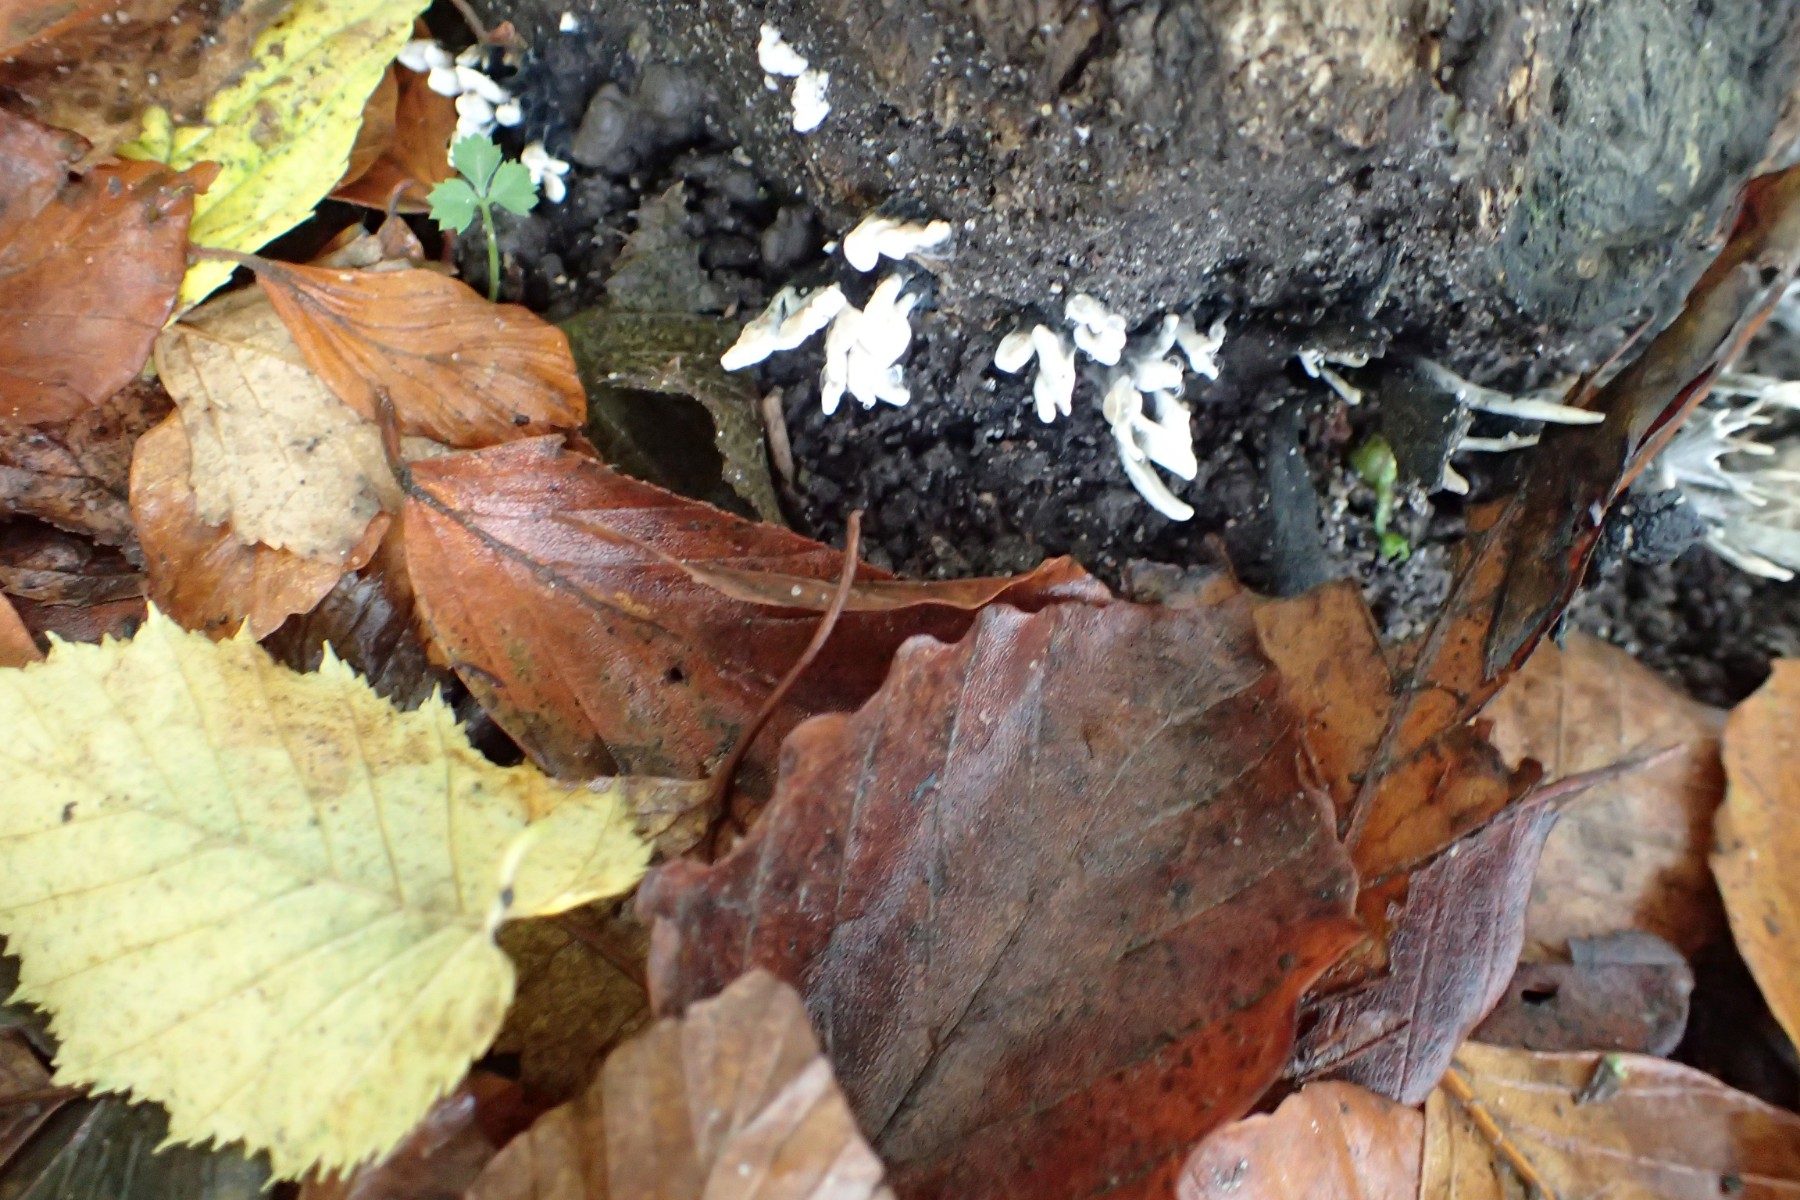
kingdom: Fungi
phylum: Ascomycota
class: Sordariomycetes
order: Xylariales
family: Xylariaceae
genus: Xylaria
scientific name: Xylaria hypoxylon
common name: grenet stødsvamp
